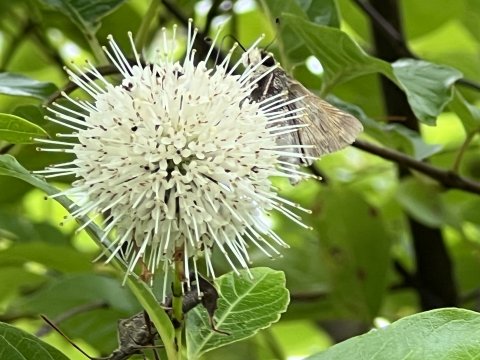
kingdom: Animalia
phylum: Arthropoda
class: Insecta
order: Lepidoptera
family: Hesperiidae
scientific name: Hesperiidae
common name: Skippers
